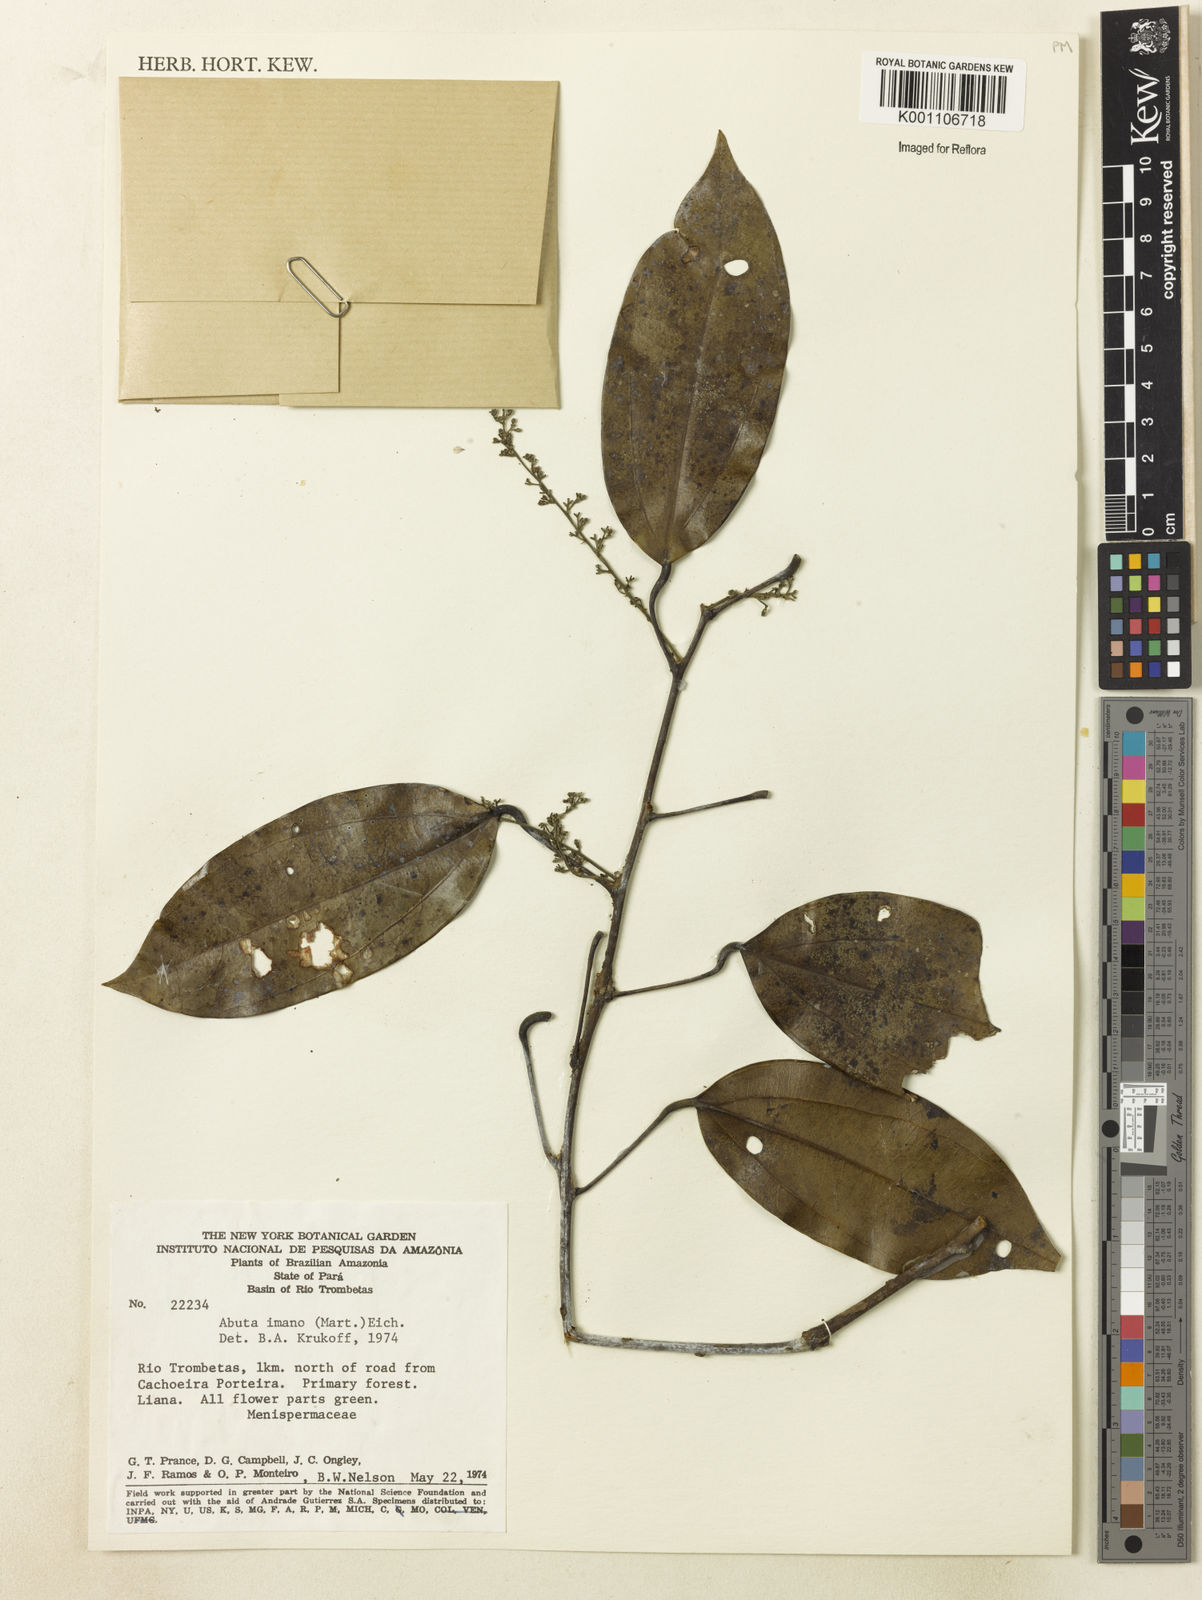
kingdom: Plantae
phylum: Tracheophyta
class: Magnoliopsida
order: Ranunculales
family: Menispermaceae
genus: Abuta
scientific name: Abuta imene
